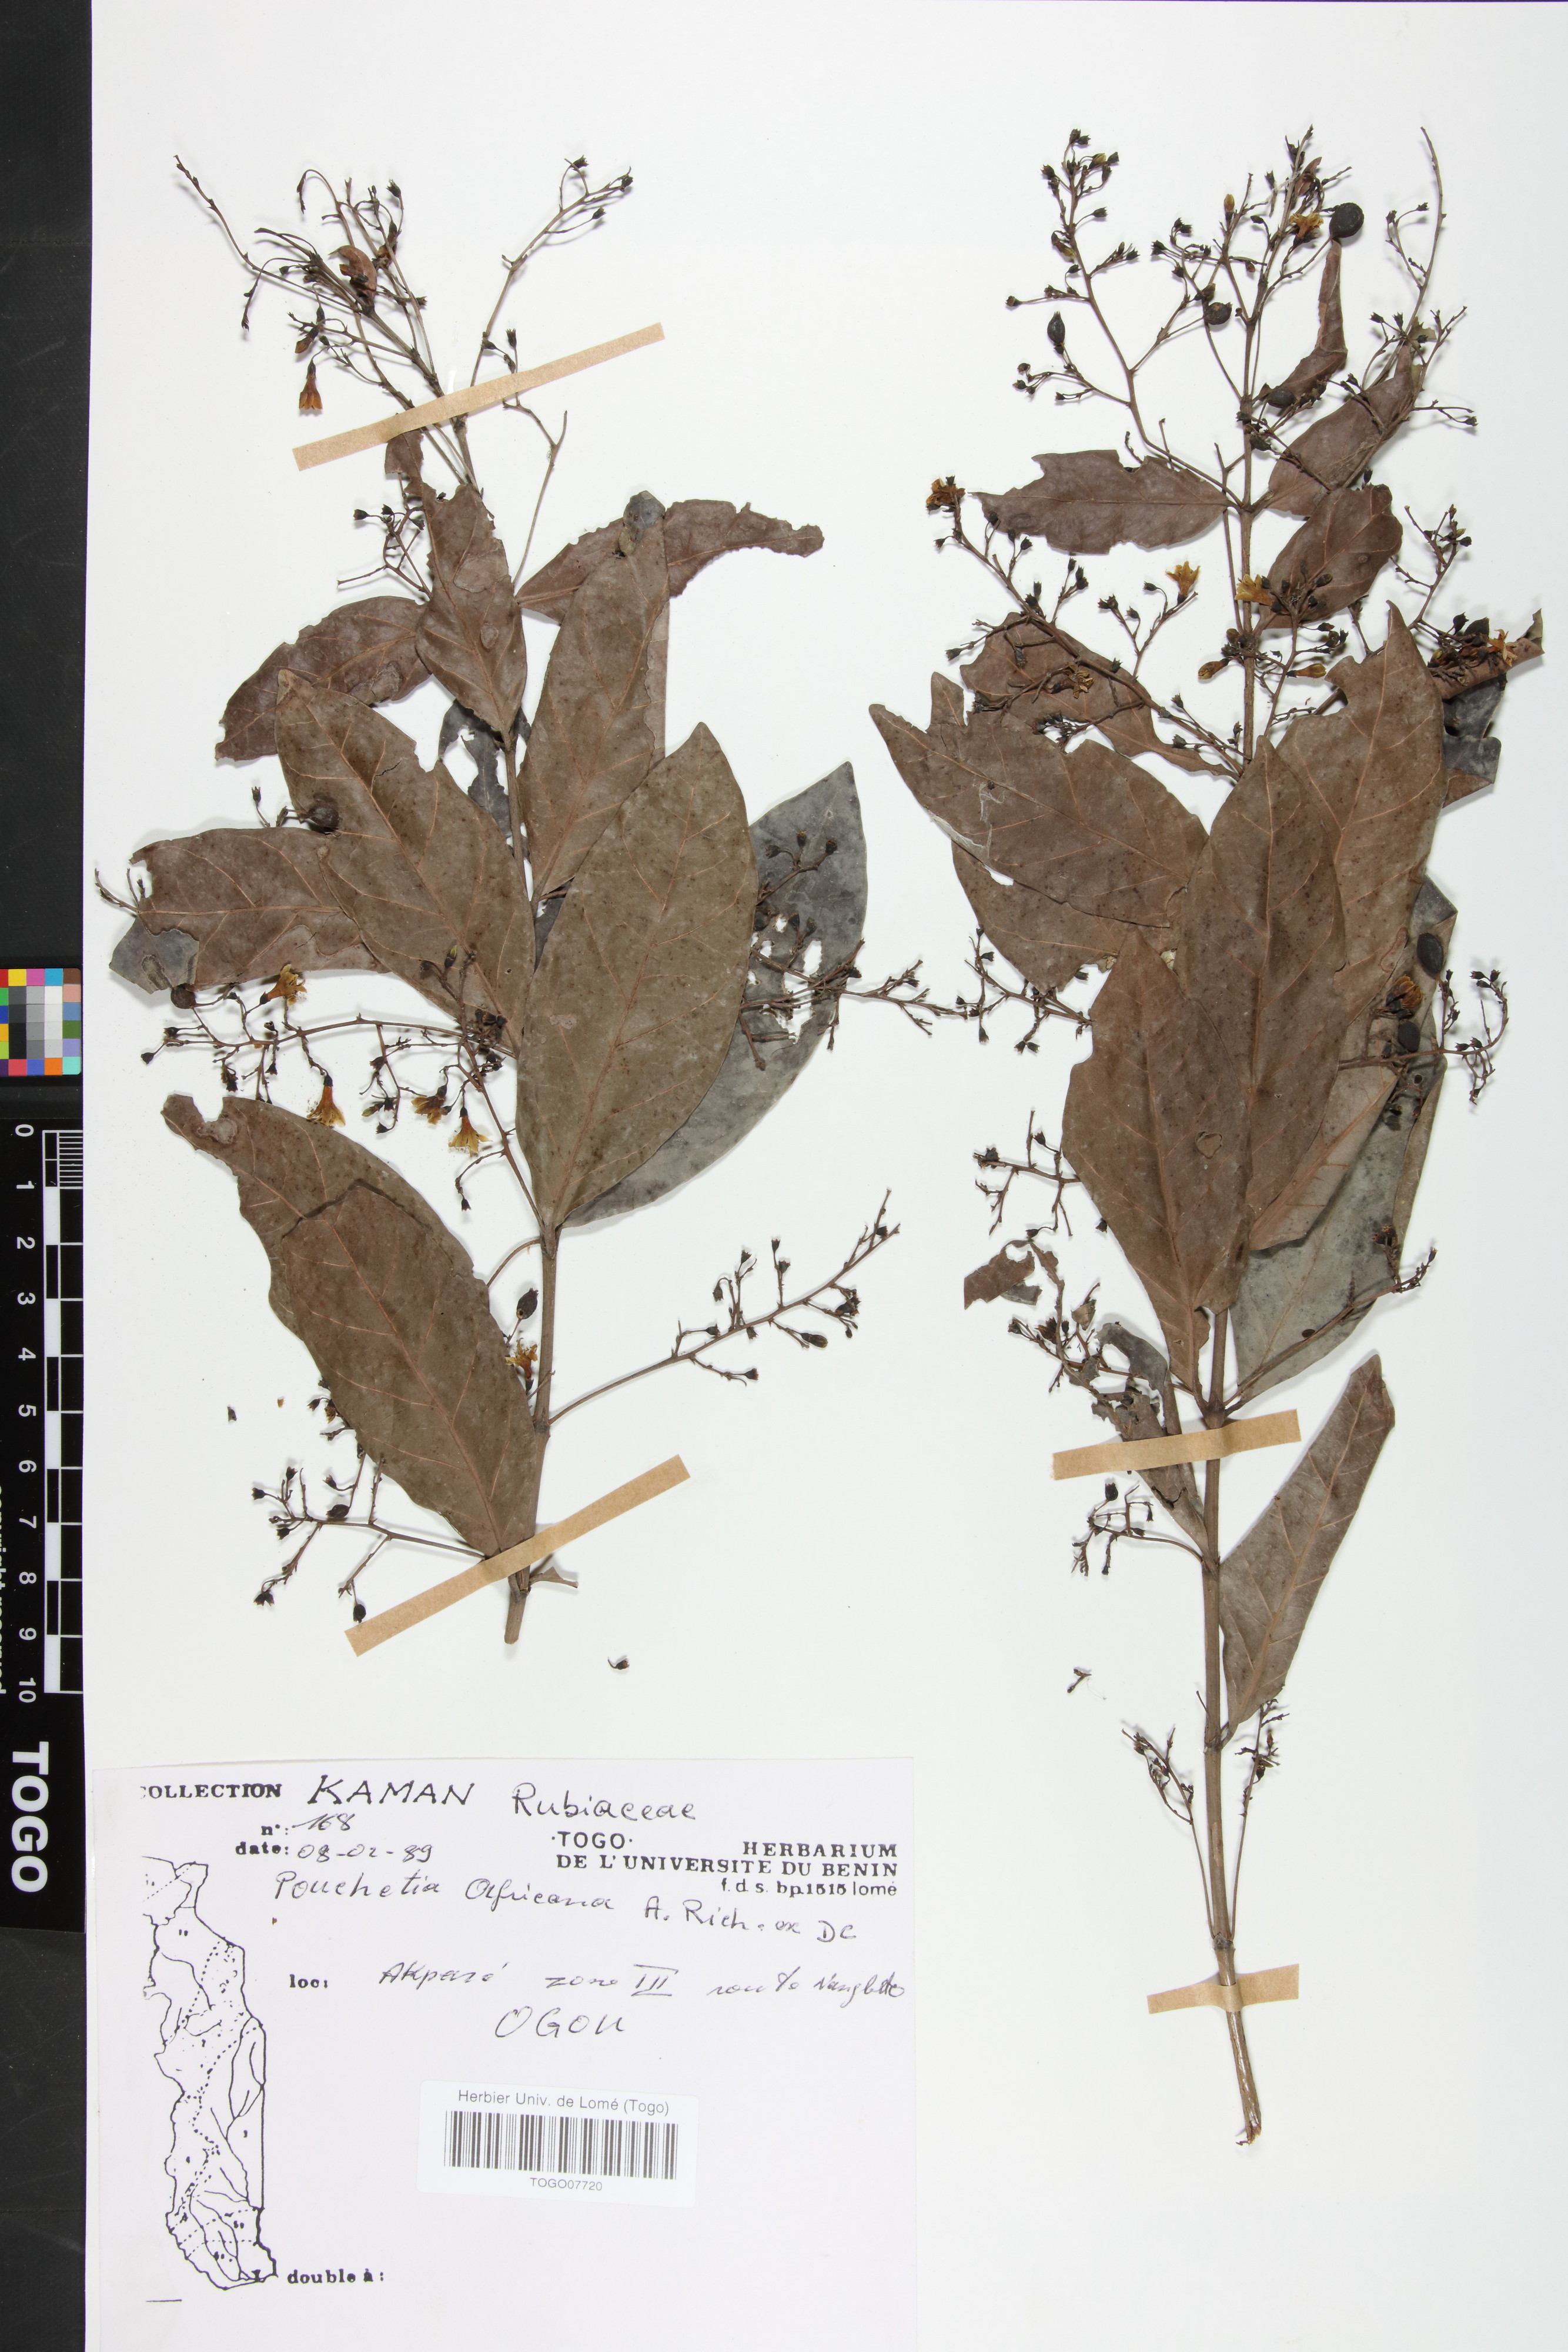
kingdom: Plantae
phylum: Tracheophyta
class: Magnoliopsida
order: Gentianales
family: Rubiaceae
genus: Pouchetia
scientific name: Pouchetia africana
